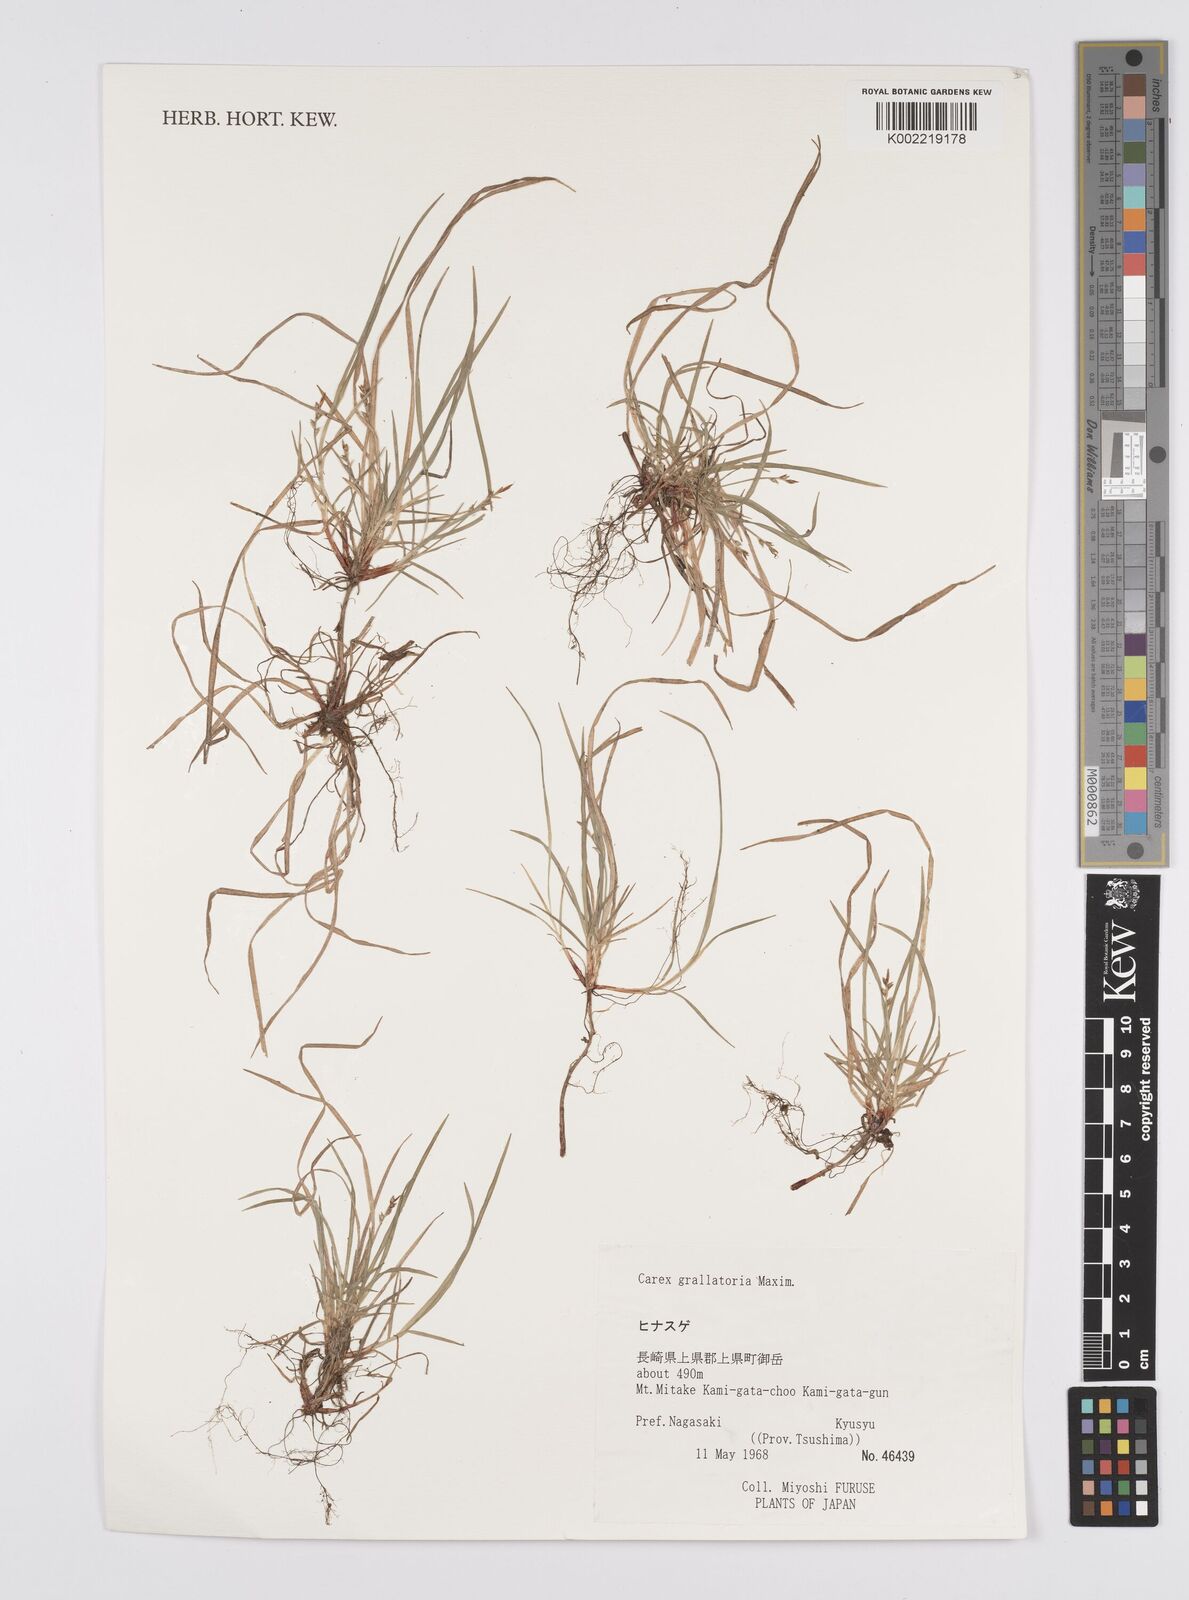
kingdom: Plantae
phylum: Tracheophyta
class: Liliopsida
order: Poales
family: Cyperaceae
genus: Carex
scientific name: Carex grallatoria
